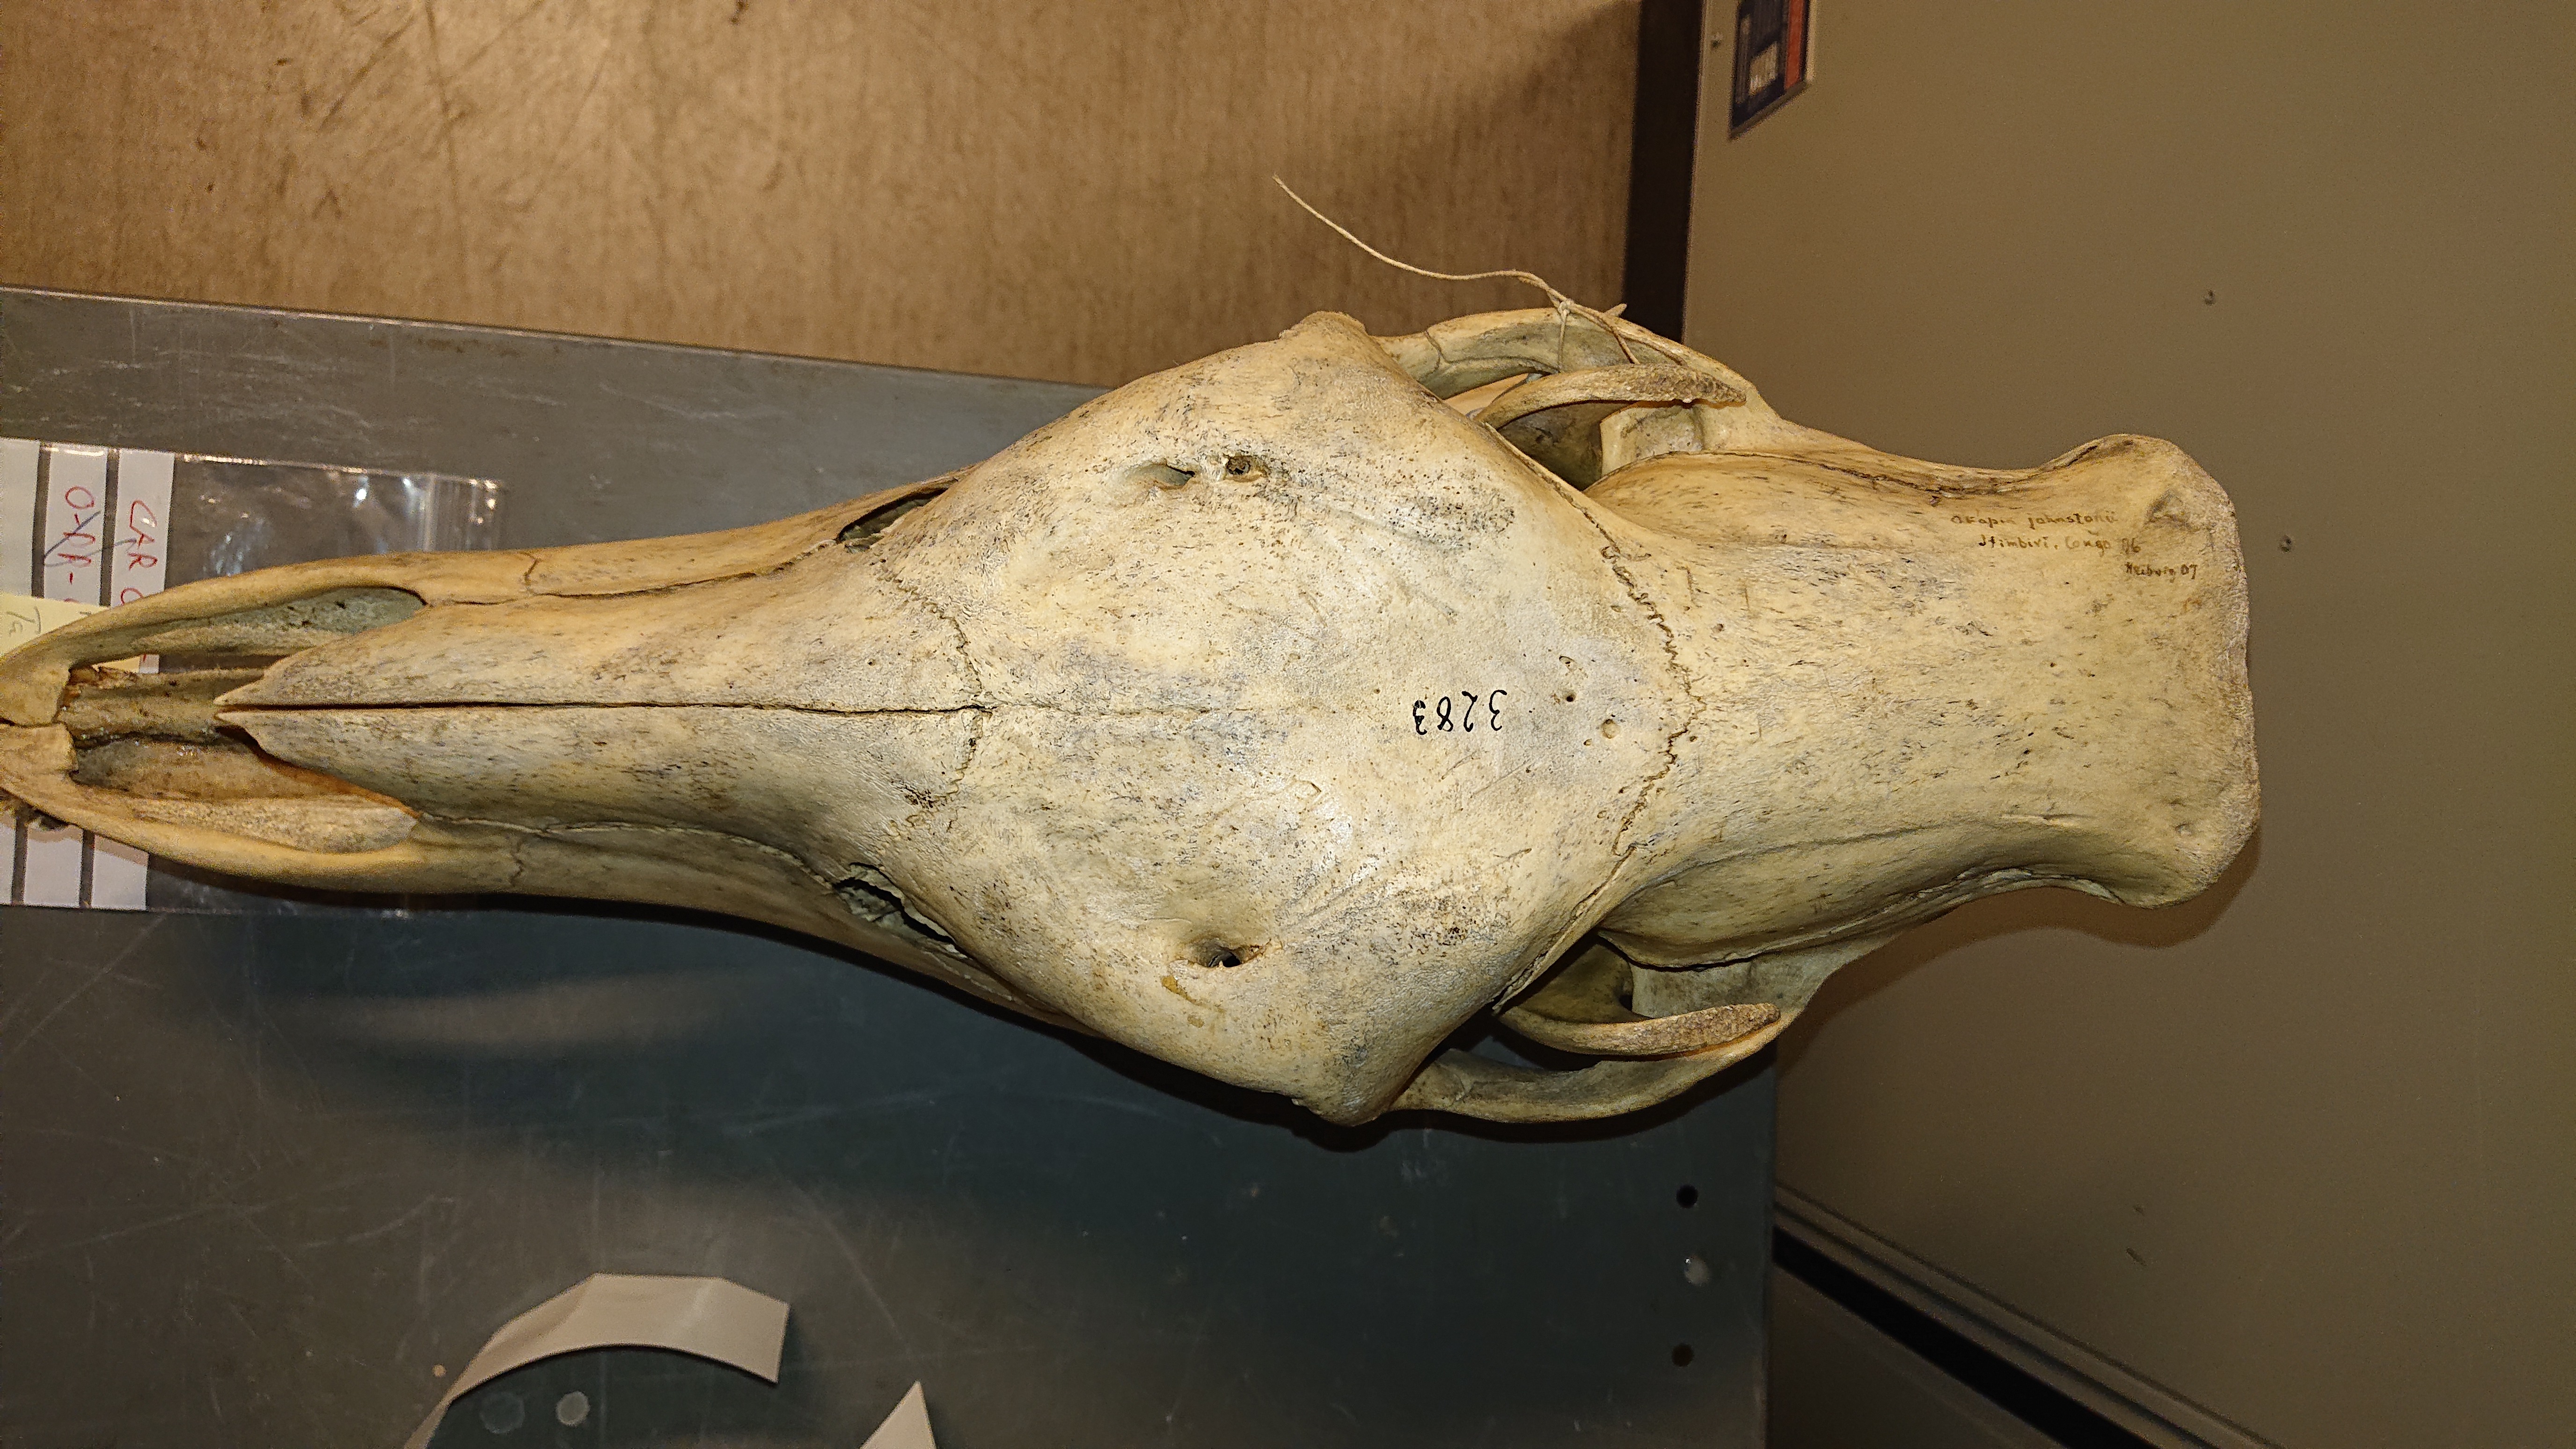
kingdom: Animalia
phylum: Chordata
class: Mammalia
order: Artiodactyla
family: Giraffidae
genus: Okapia
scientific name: Okapia johnstoni
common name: Okapi
